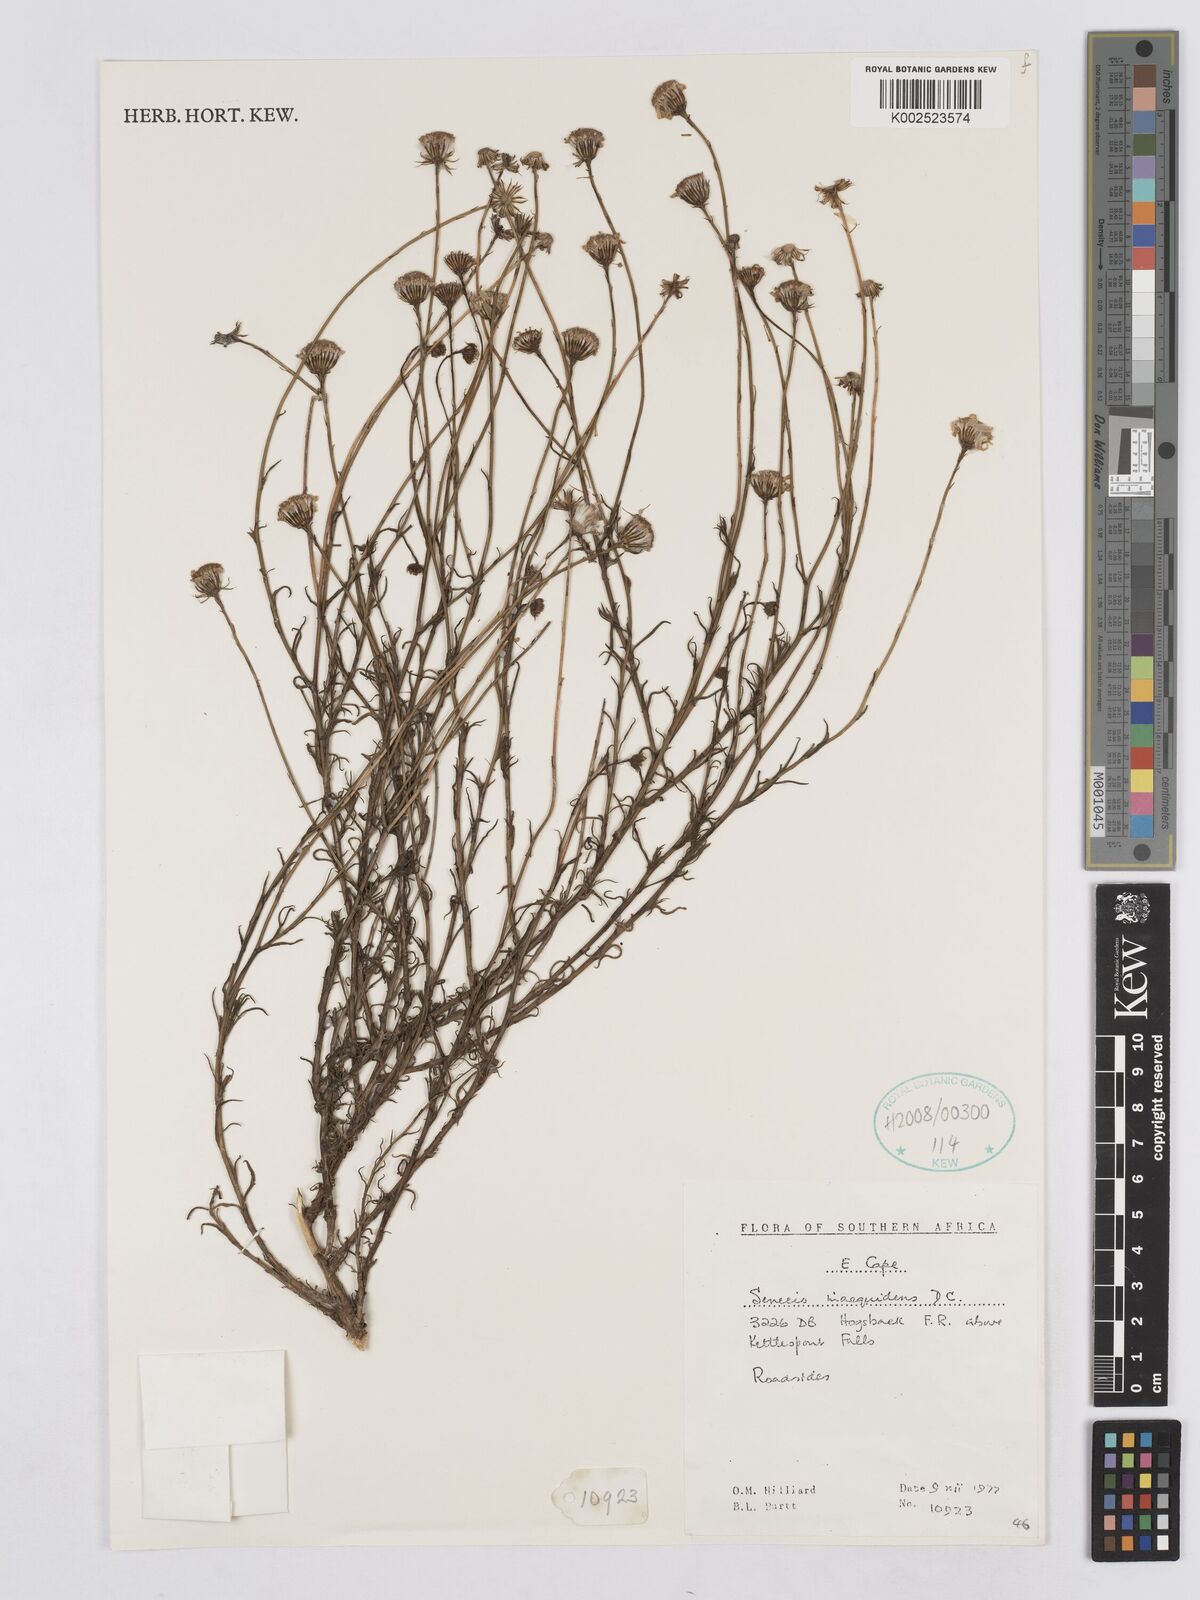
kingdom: Plantae
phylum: Tracheophyta
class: Magnoliopsida
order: Asterales
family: Asteraceae
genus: Senecio
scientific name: Senecio inaequidens
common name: Narrow-leaved ragwort
